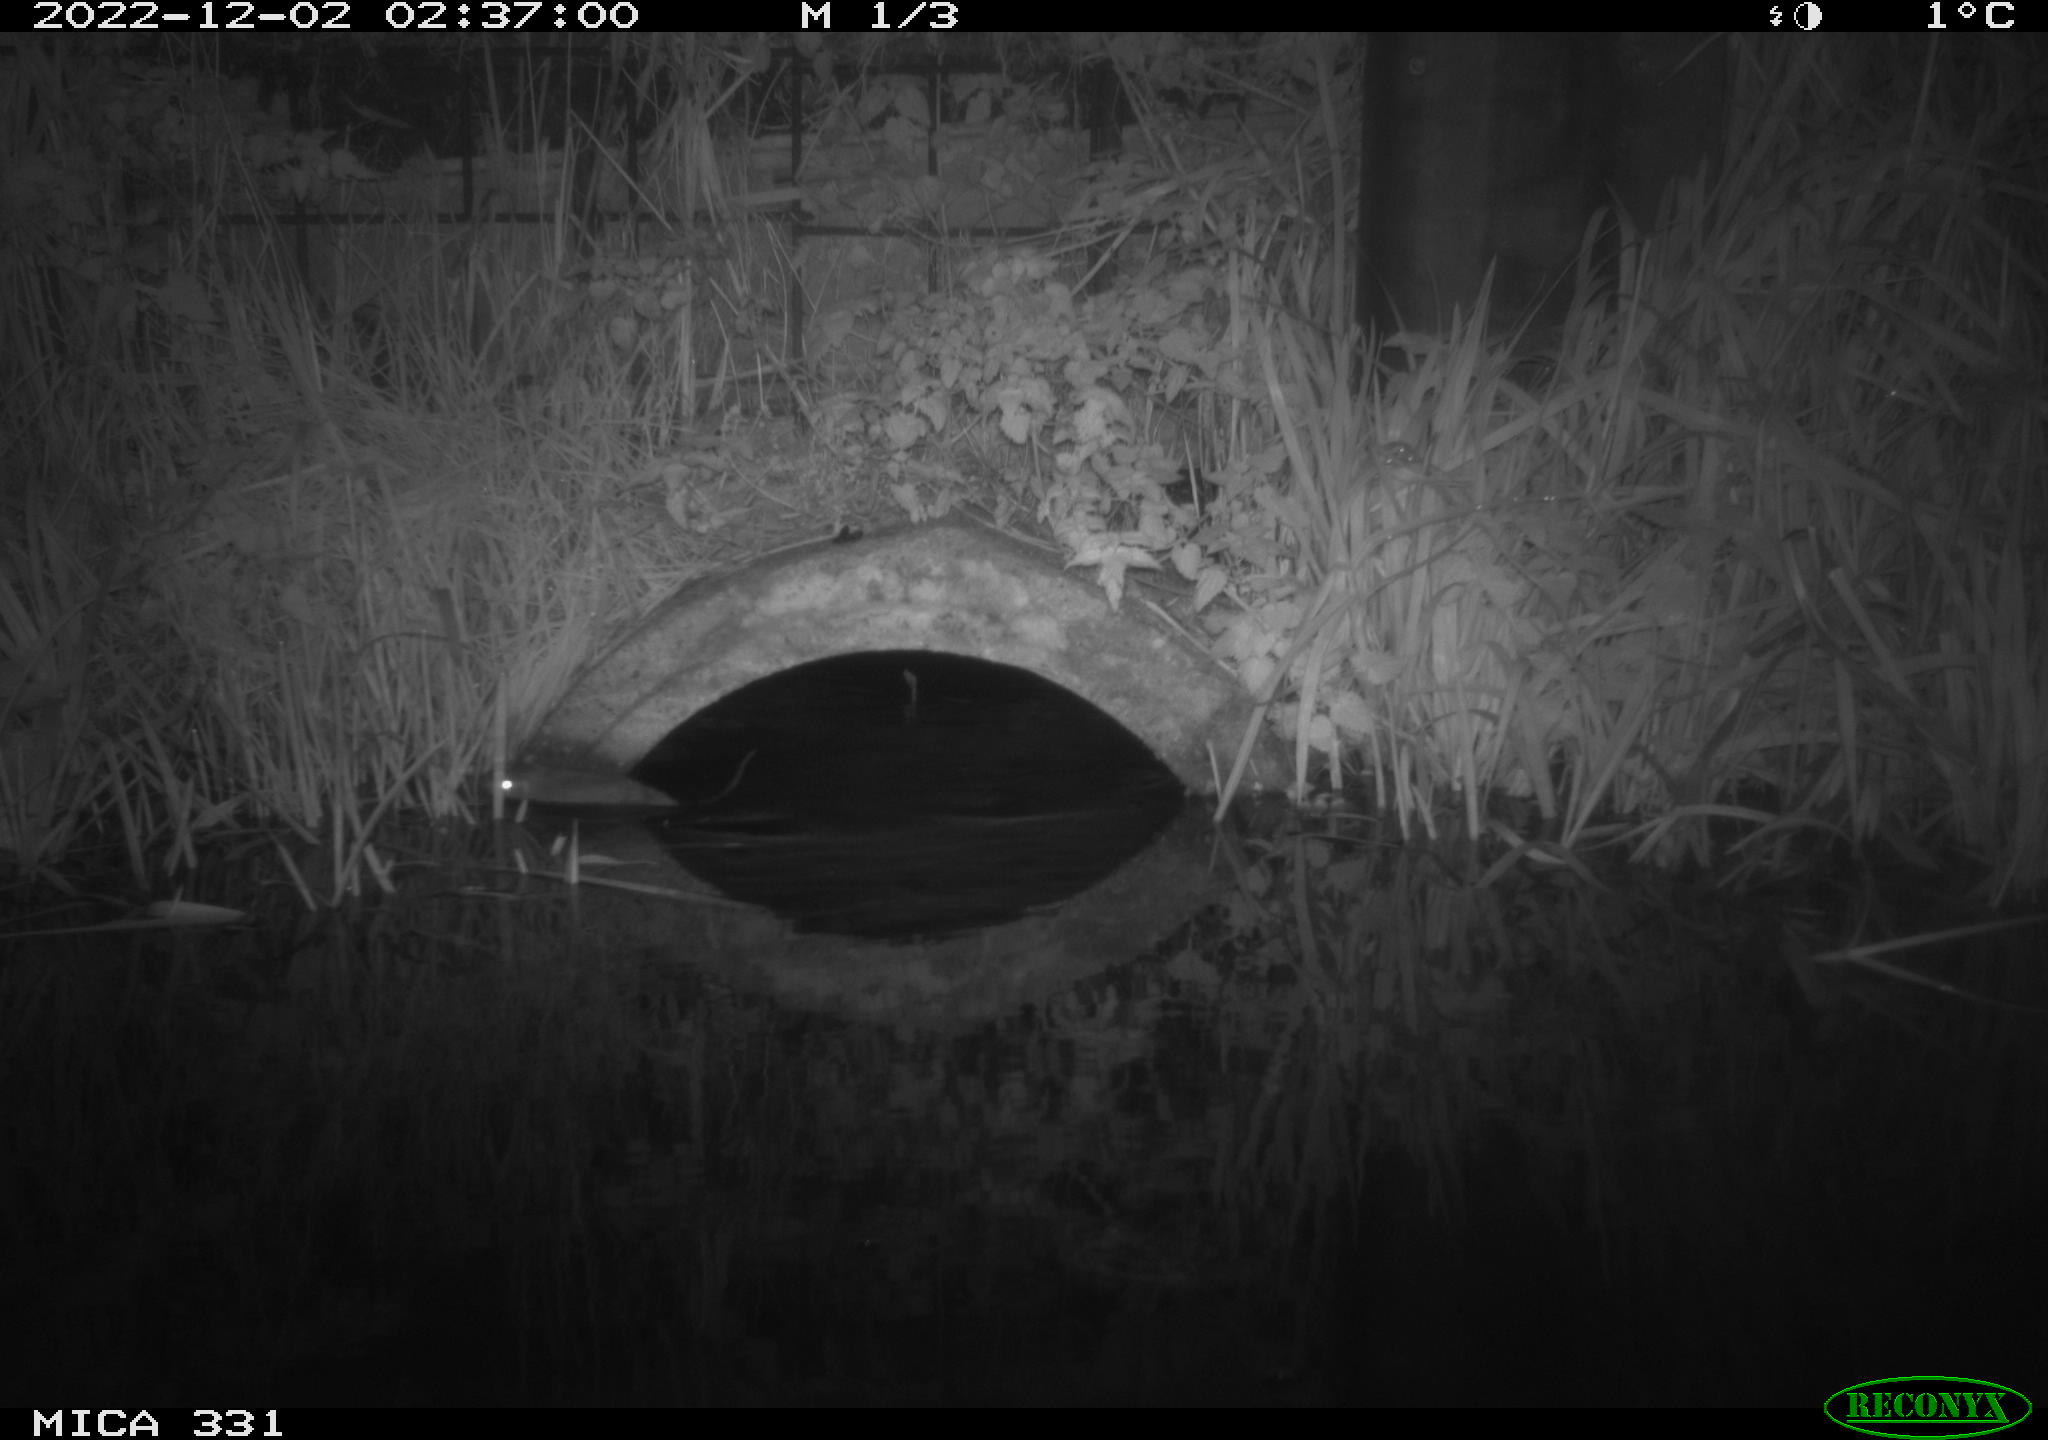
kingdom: Animalia
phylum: Chordata
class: Mammalia
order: Rodentia
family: Muridae
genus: Rattus
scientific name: Rattus norvegicus
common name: Brown rat
